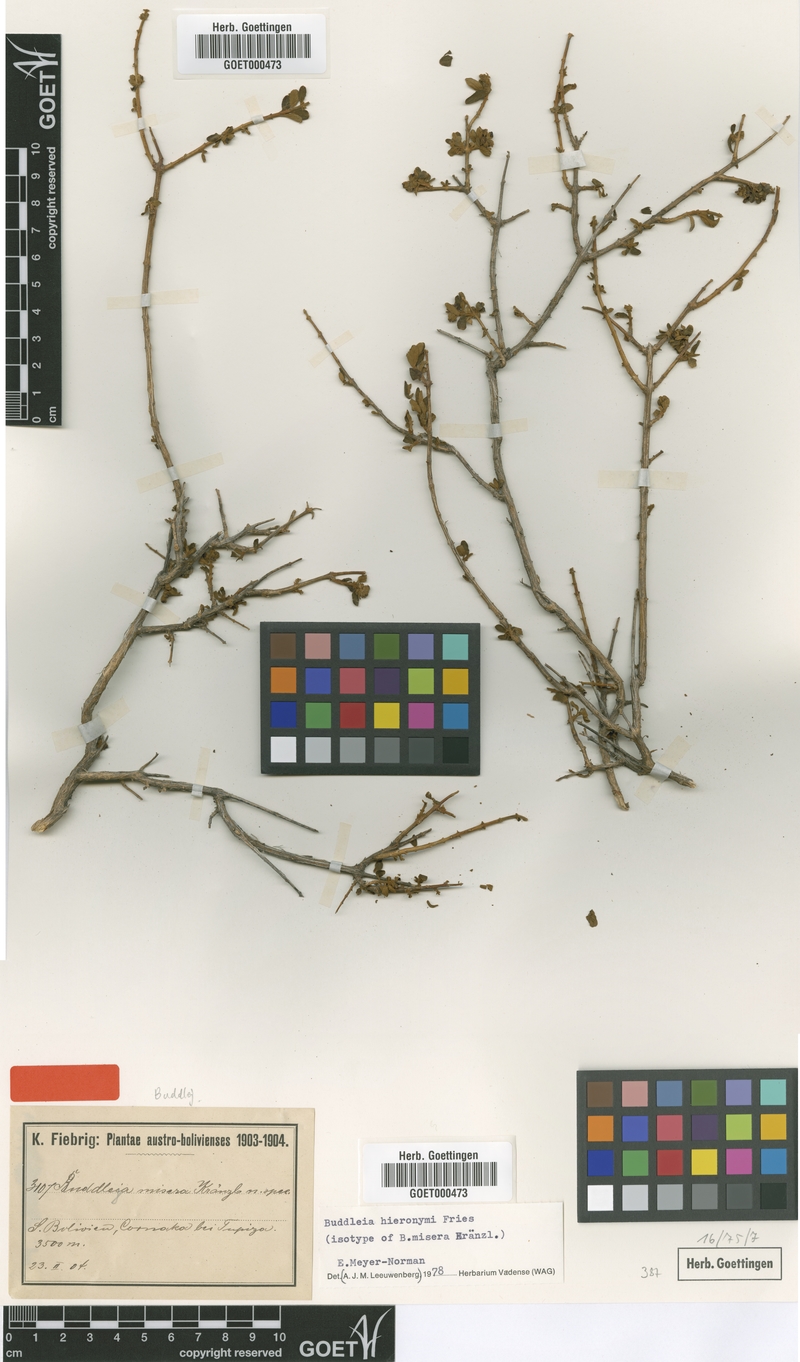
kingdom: Plantae
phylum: Tracheophyta
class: Magnoliopsida
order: Lamiales
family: Scrophulariaceae
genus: Buddleja
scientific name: Buddleja hieronymi
